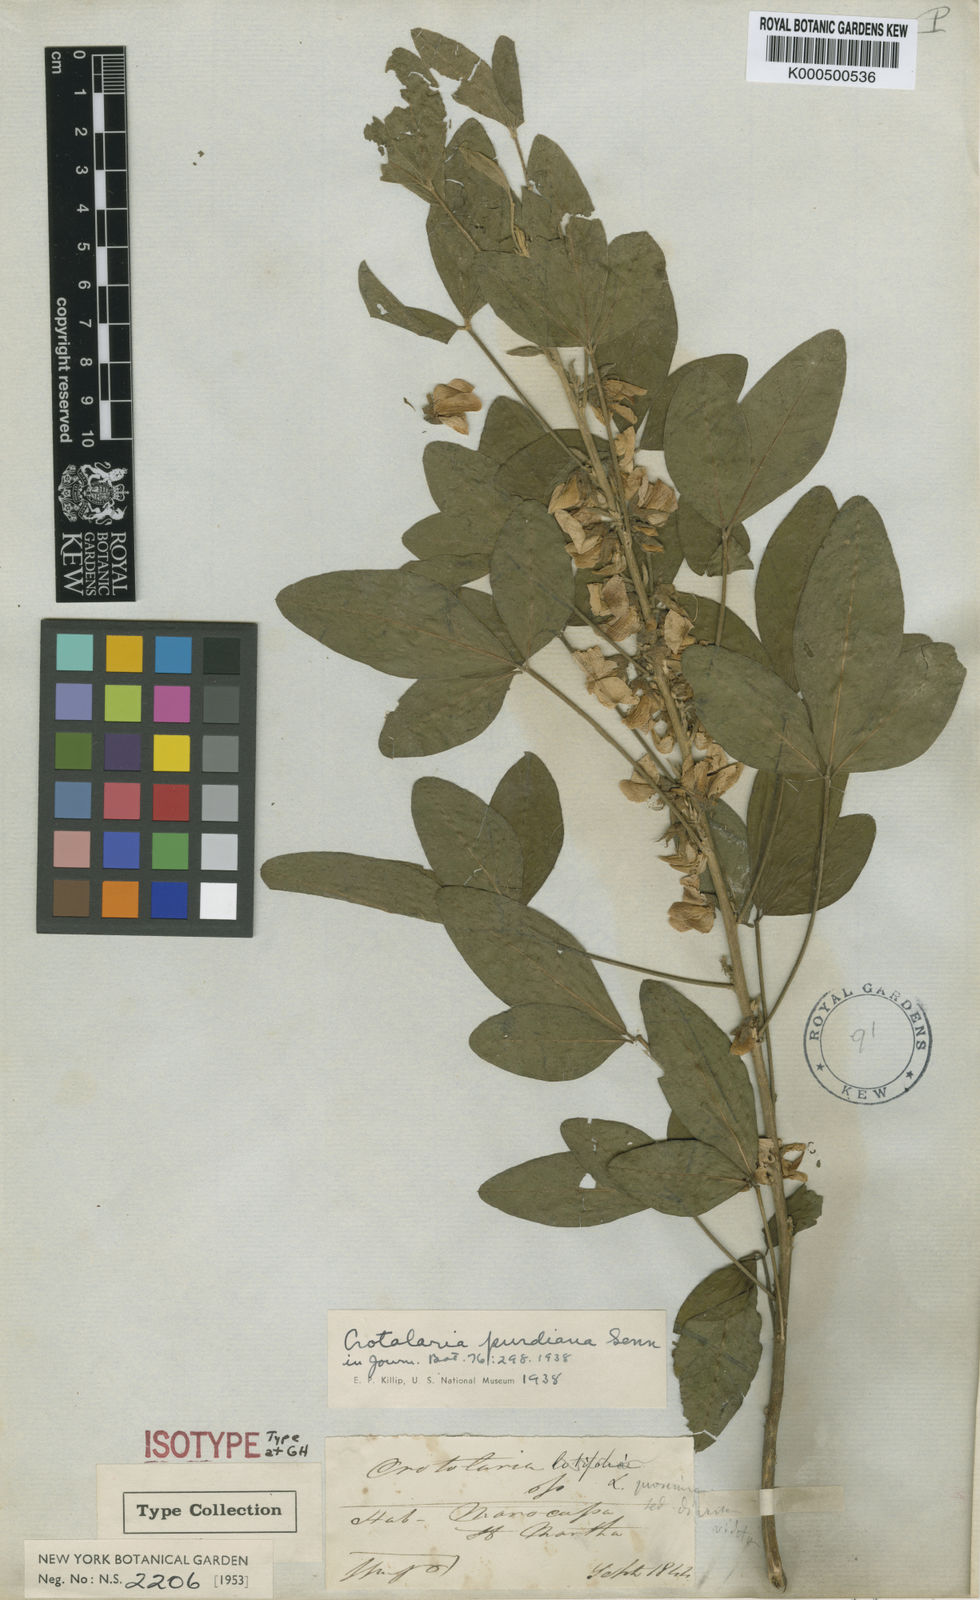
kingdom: Plantae
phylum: Tracheophyta
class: Magnoliopsida
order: Fabales
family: Fabaceae
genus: Crotalaria
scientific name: Crotalaria
